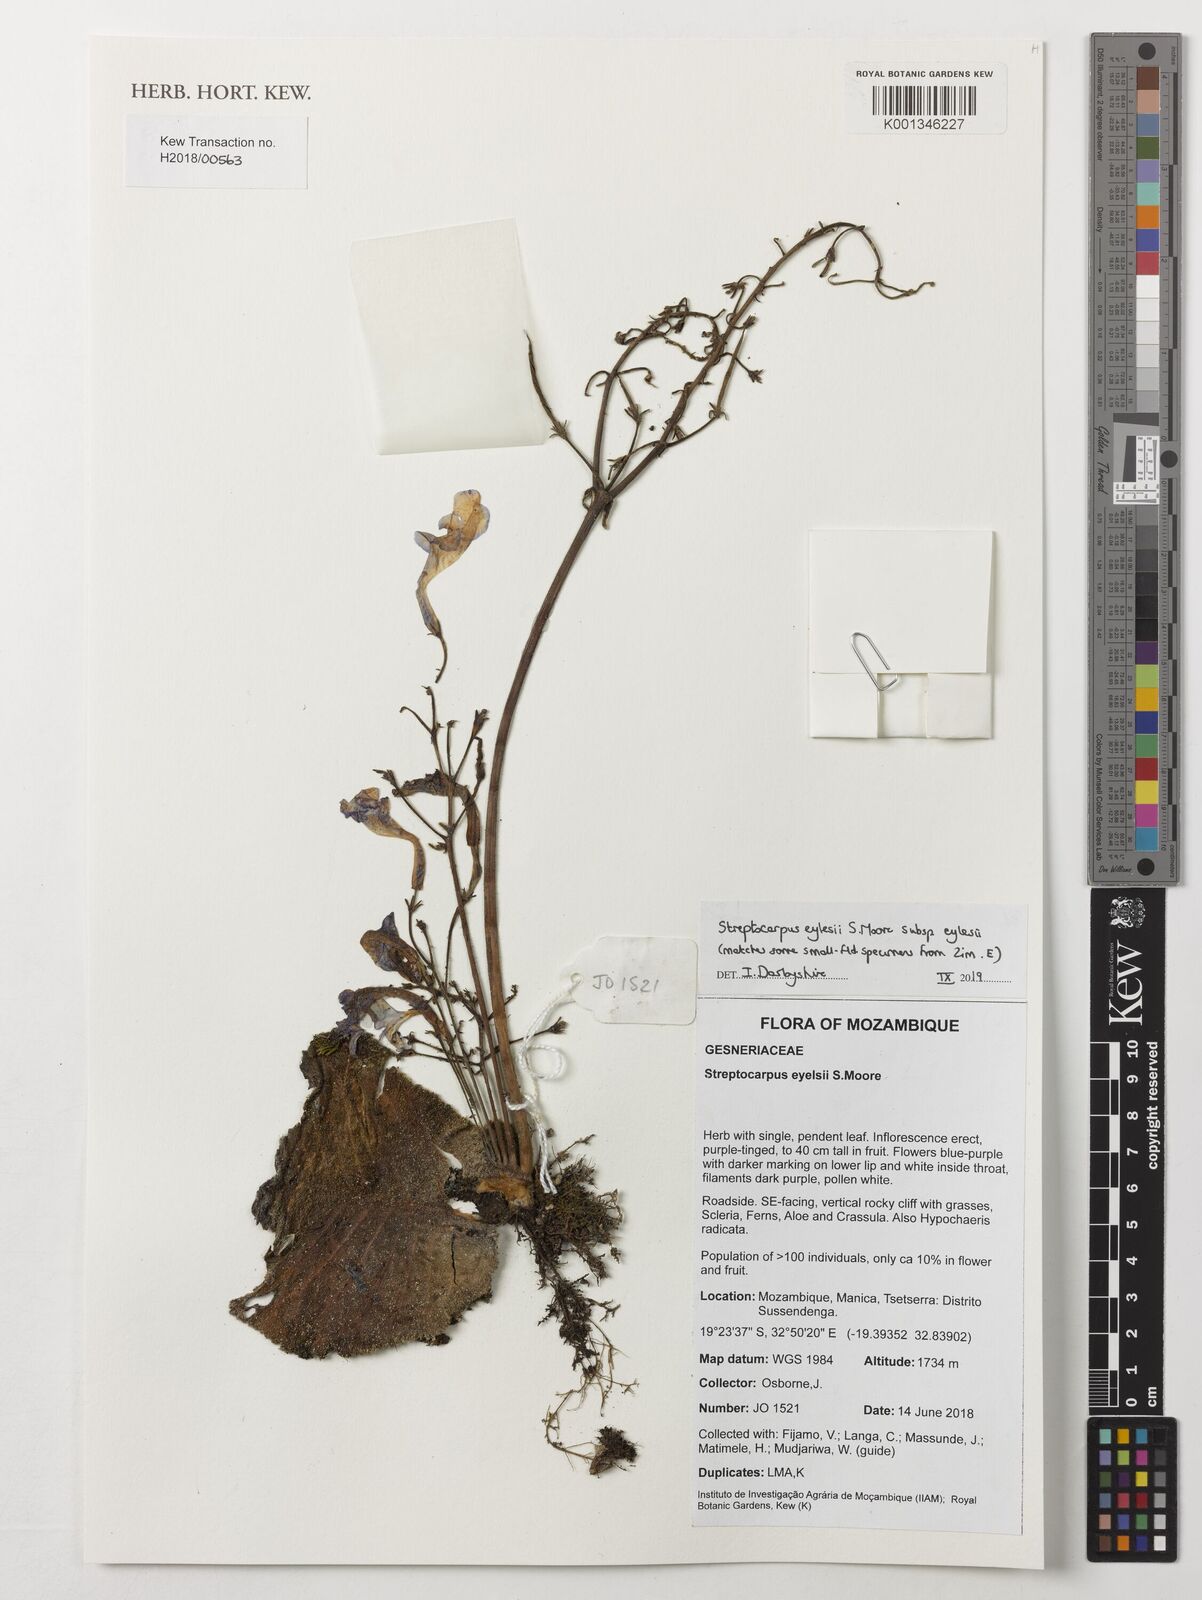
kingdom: Plantae
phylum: Tracheophyta
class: Magnoliopsida
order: Lamiales
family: Gesneriaceae
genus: Streptocarpus
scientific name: Streptocarpus eylesii
